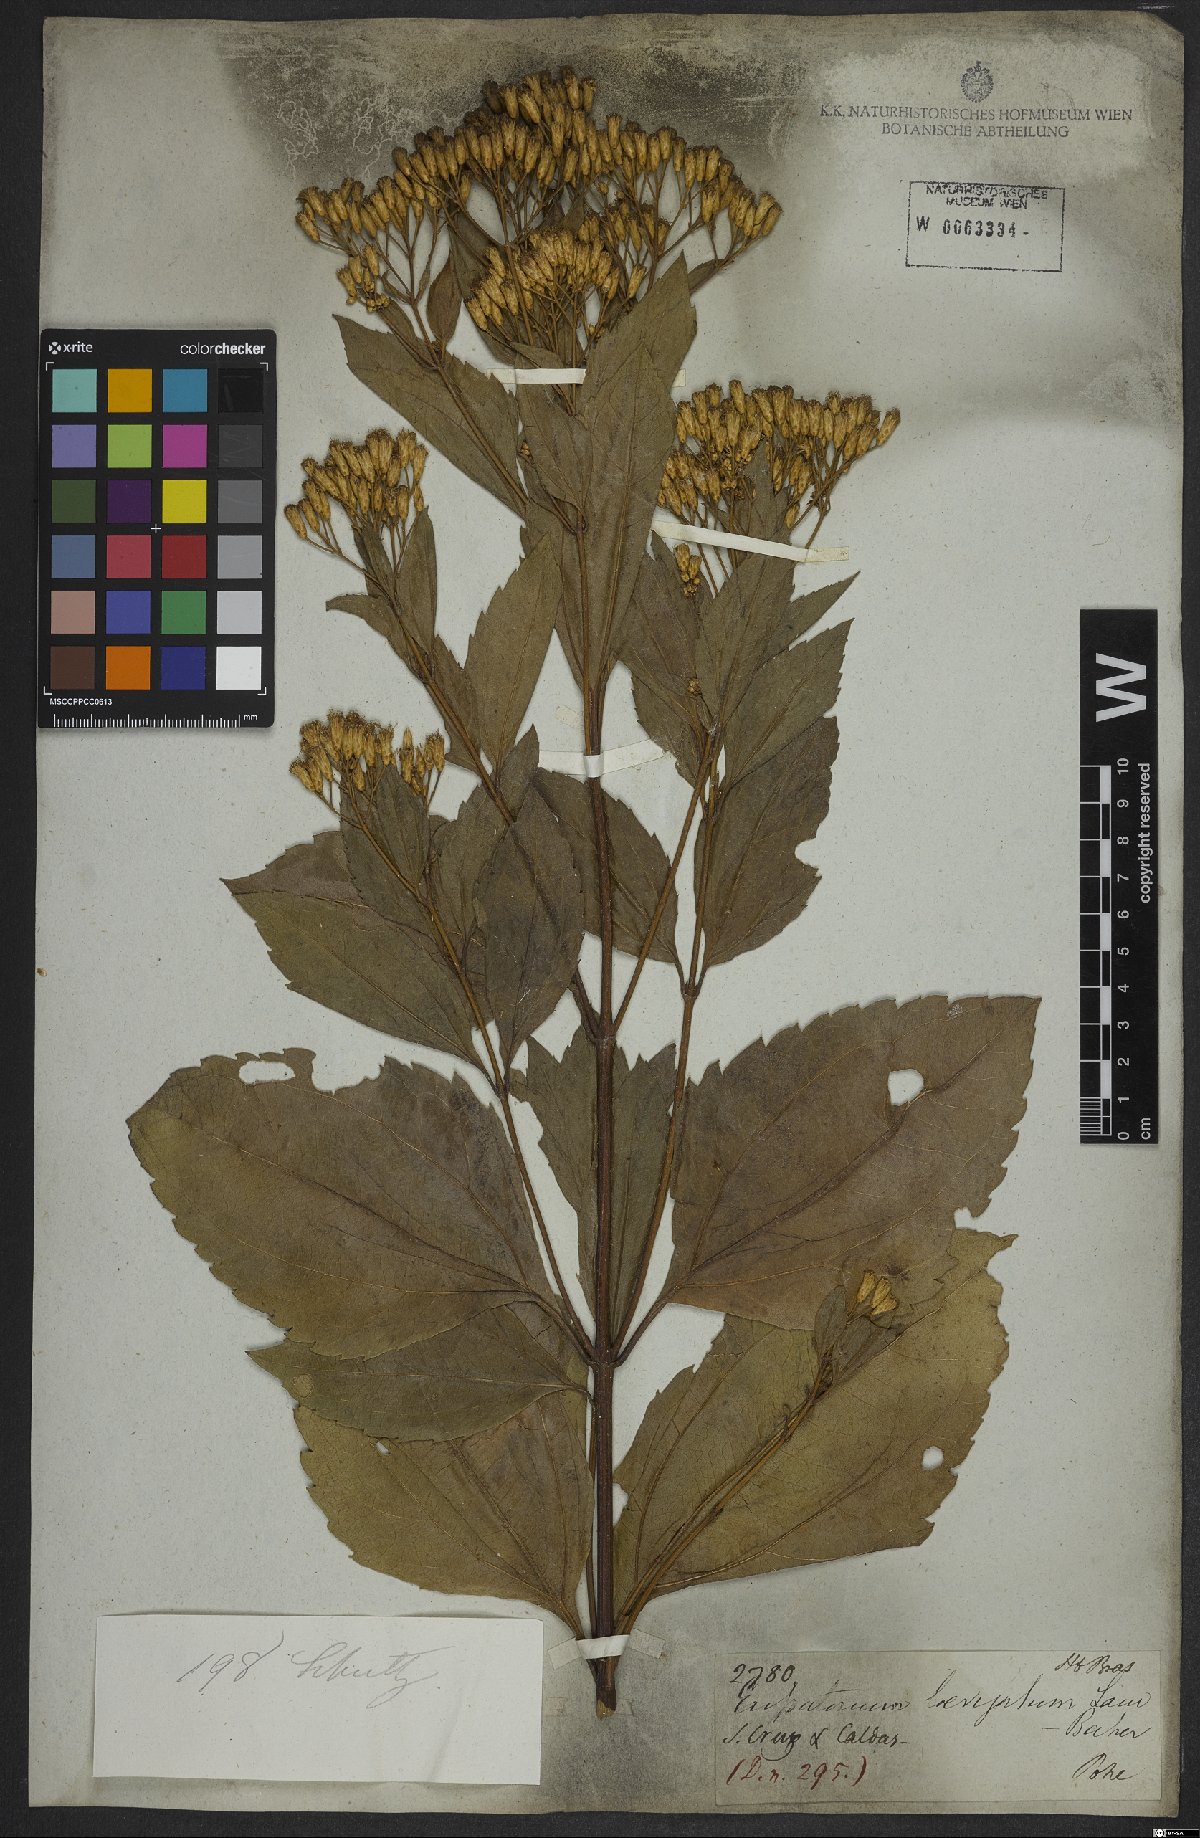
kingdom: Plantae
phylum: Tracheophyta
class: Magnoliopsida
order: Asterales
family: Asteraceae
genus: Eupatorium
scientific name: Eupatorium laevigatum
